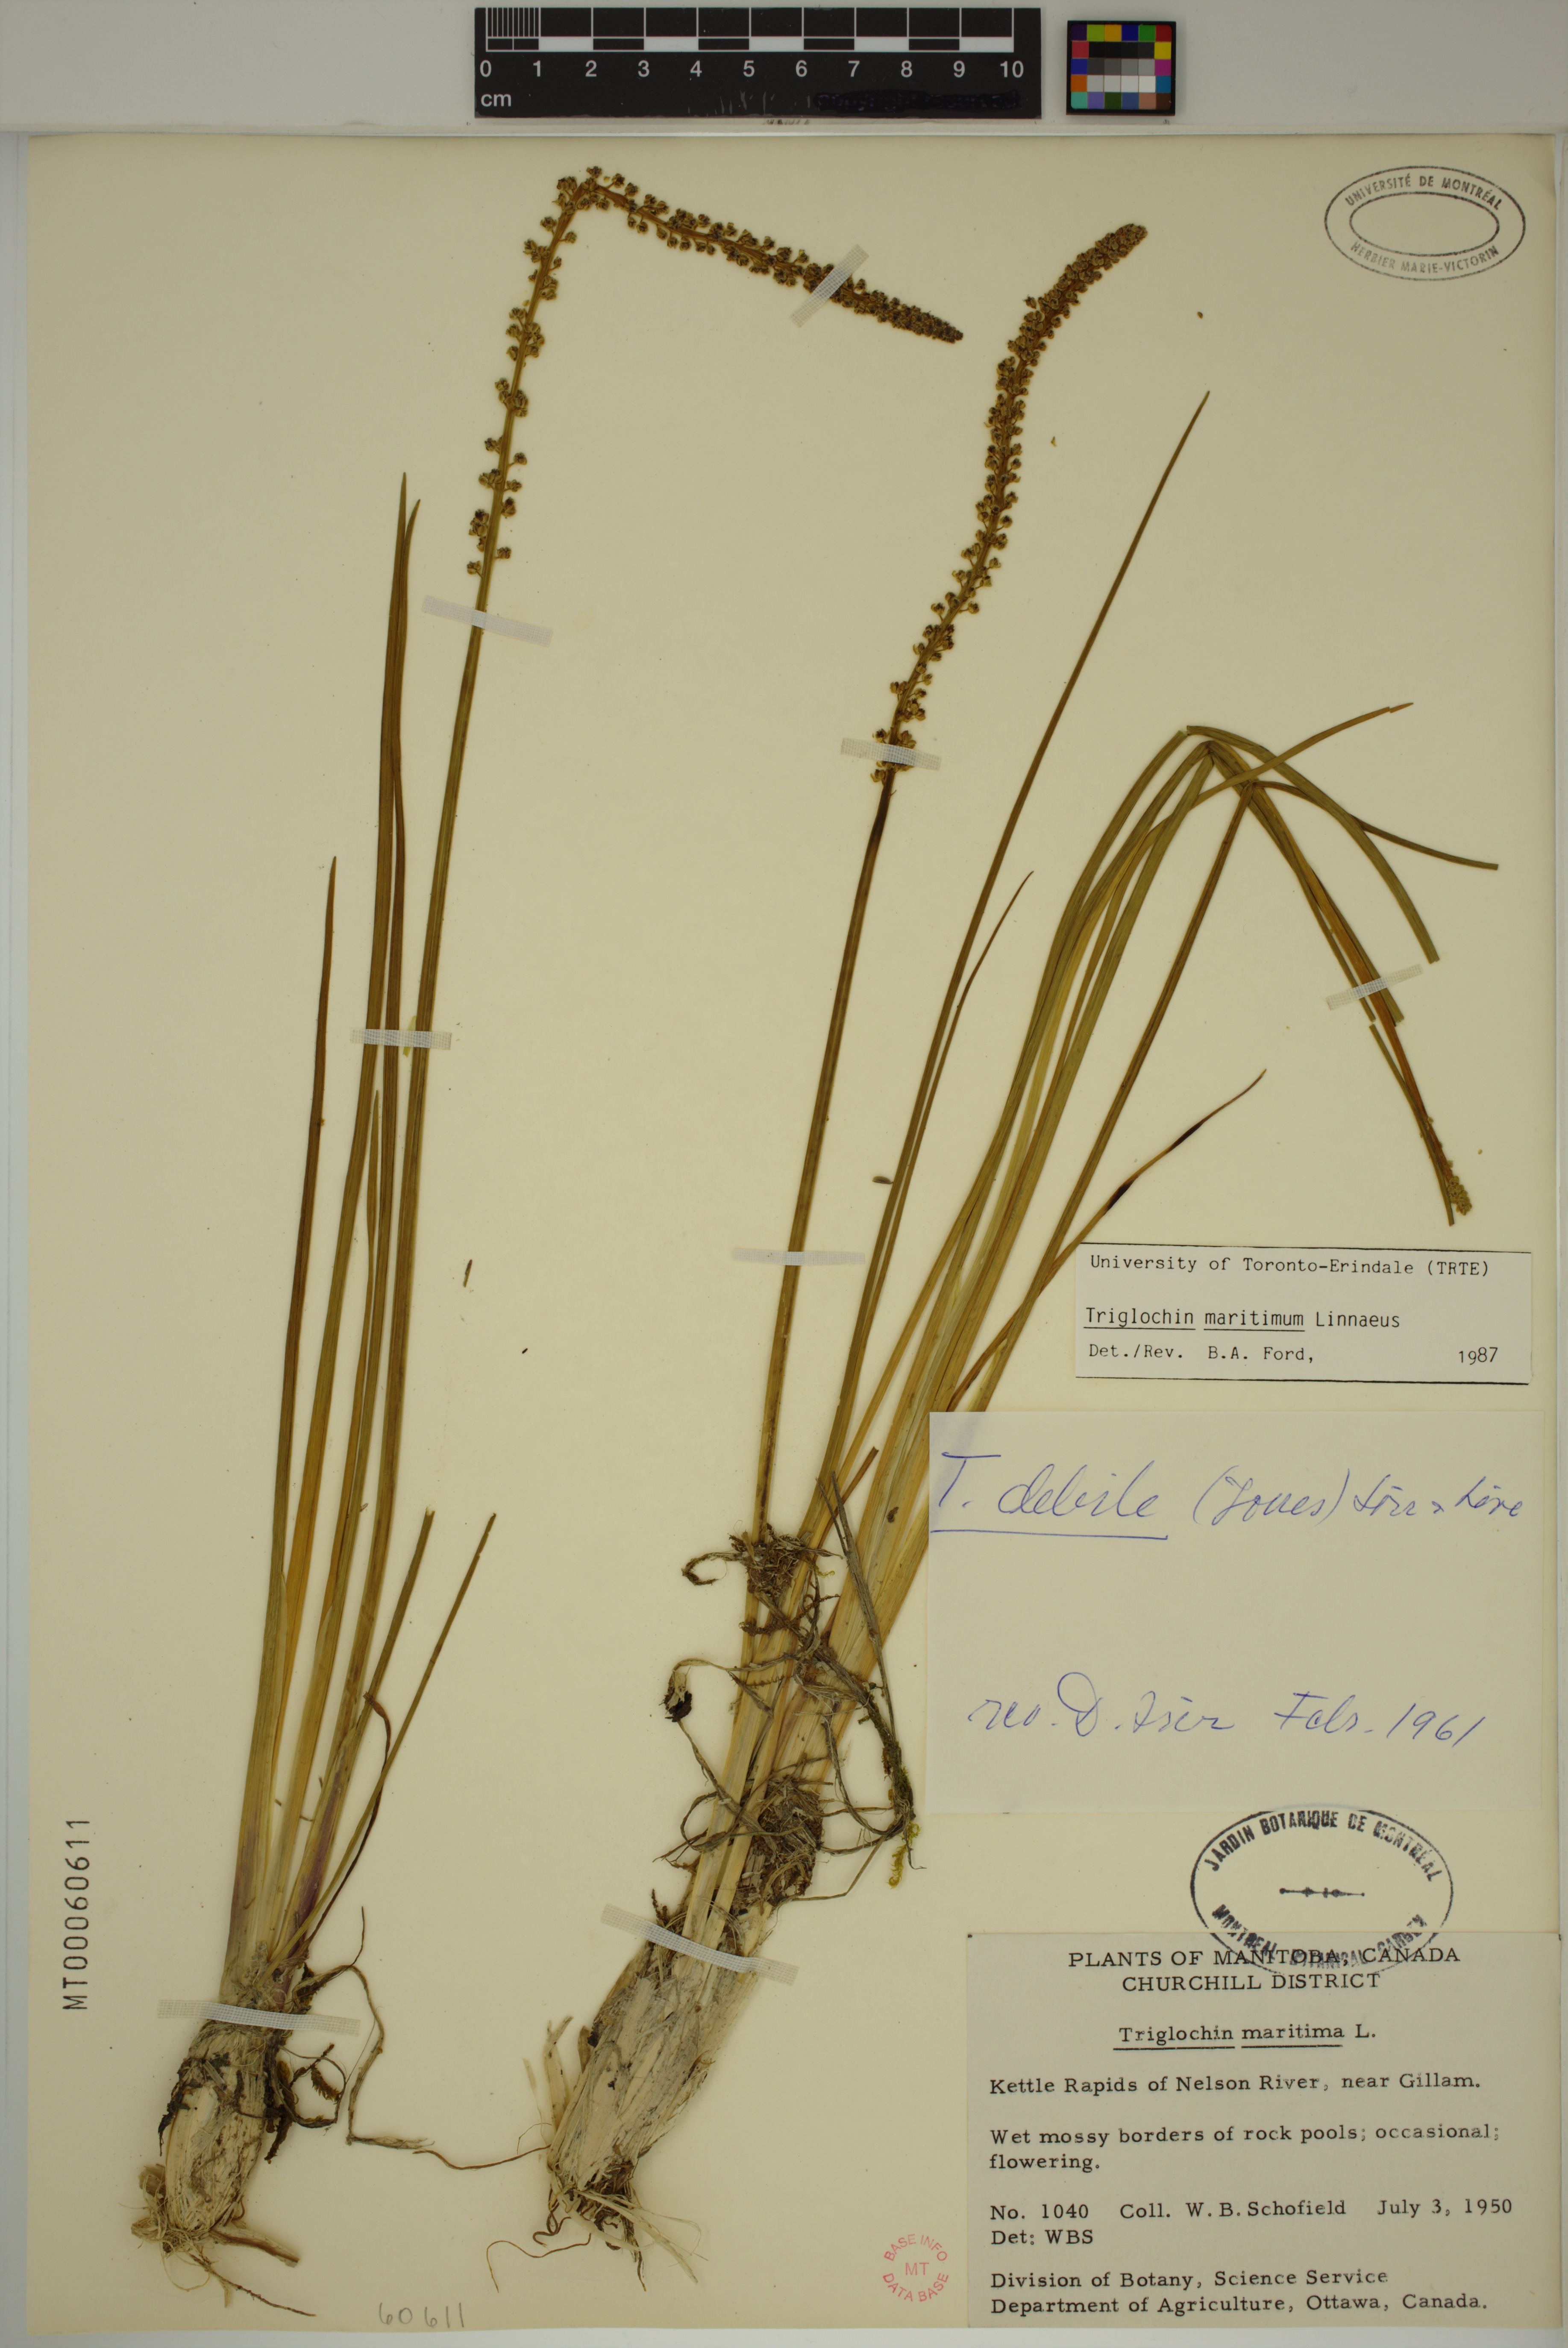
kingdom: Plantae
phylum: Tracheophyta
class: Liliopsida
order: Alismatales
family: Juncaginaceae
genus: Triglochin
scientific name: Triglochin maritima
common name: Sea arrowgrass
